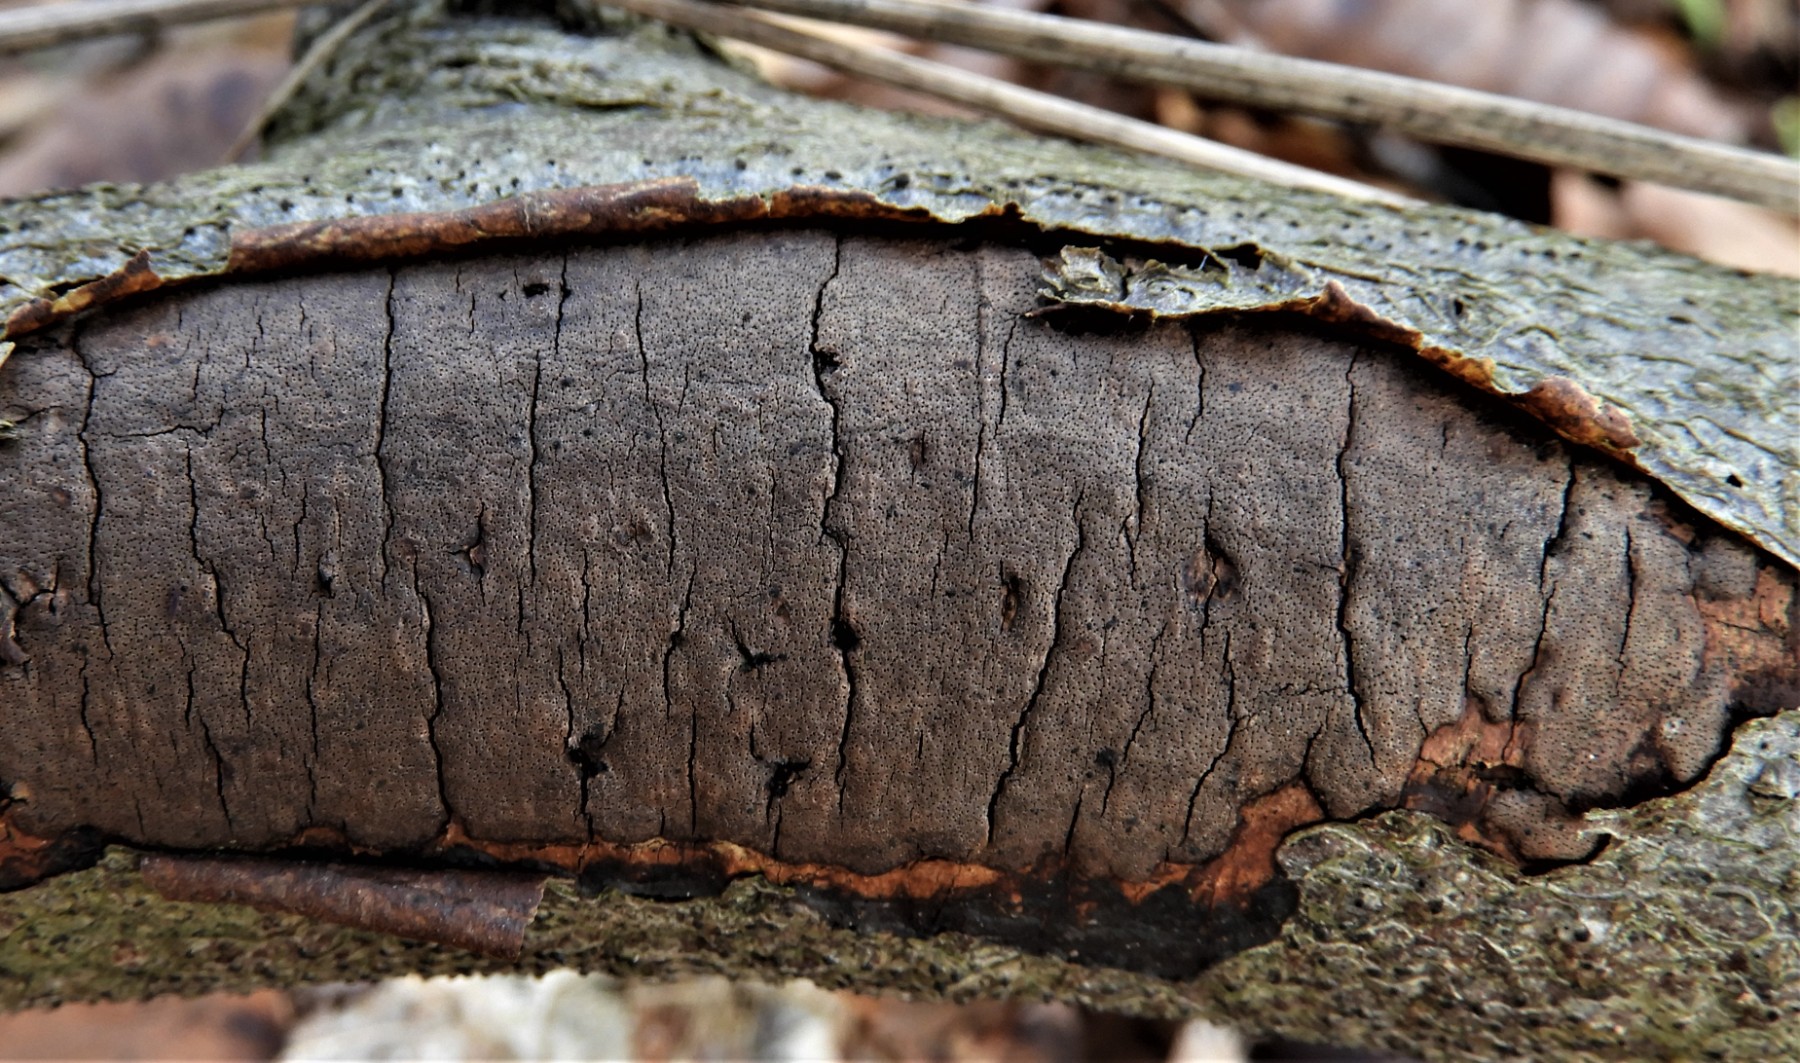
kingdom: Fungi
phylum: Ascomycota
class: Sordariomycetes
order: Xylariales
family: Diatrypaceae
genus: Diatrype
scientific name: Diatrype decorticata
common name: barksprænger-kulskorpe
